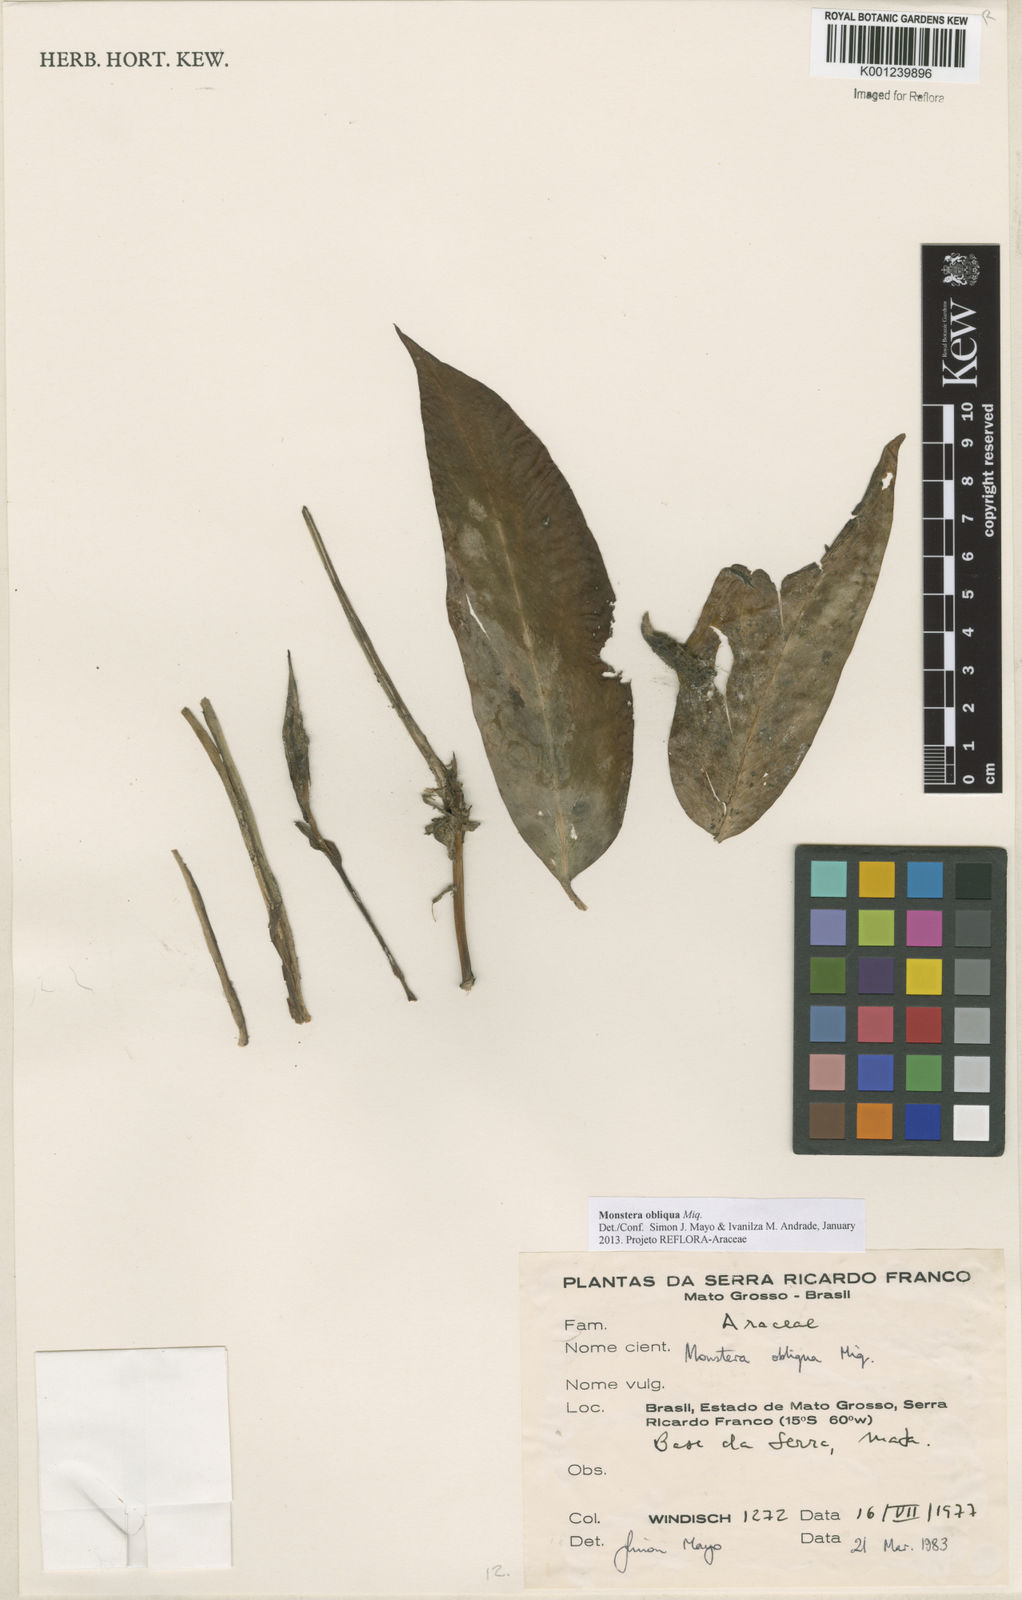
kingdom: Plantae
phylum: Tracheophyta
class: Liliopsida
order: Alismatales
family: Araceae
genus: Monstera
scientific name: Monstera obliqua
